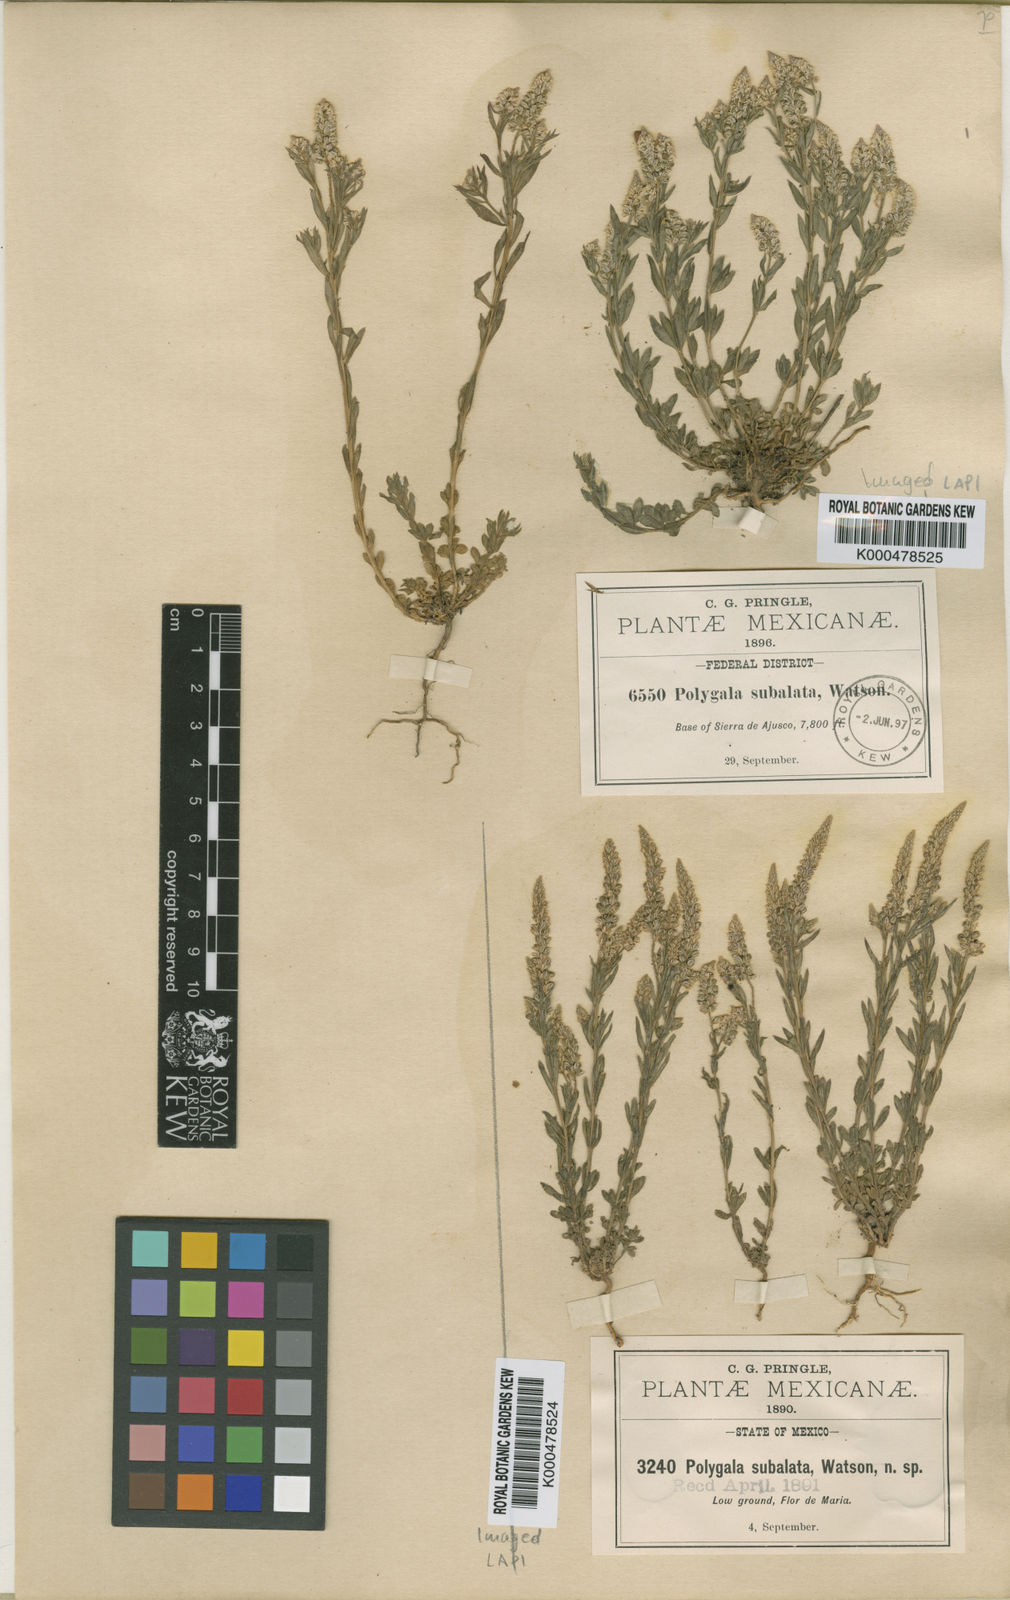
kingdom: Plantae
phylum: Tracheophyta
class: Magnoliopsida
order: Fabales
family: Polygalaceae
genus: Polygala
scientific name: Polygala subalata
